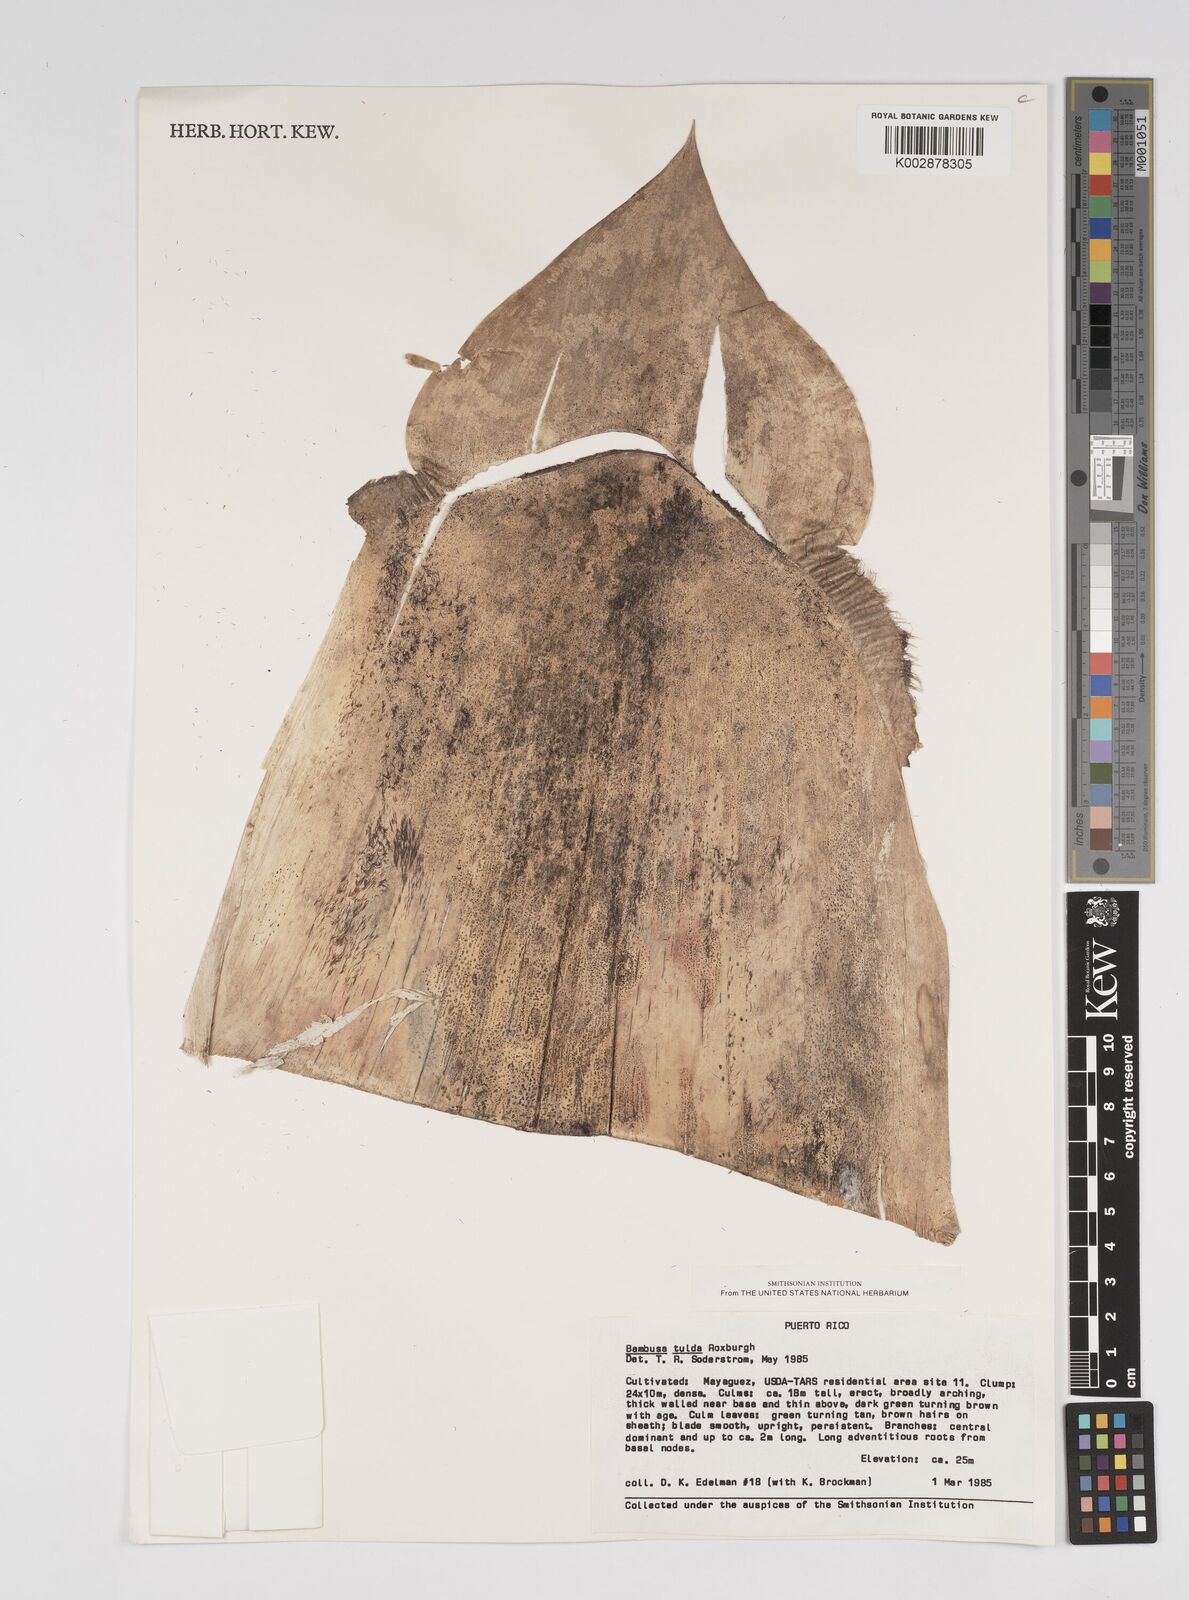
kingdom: Plantae
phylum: Tracheophyta
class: Liliopsida
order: Poales
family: Poaceae
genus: Bambusa
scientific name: Bambusa vulgaris
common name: Common bamboo
